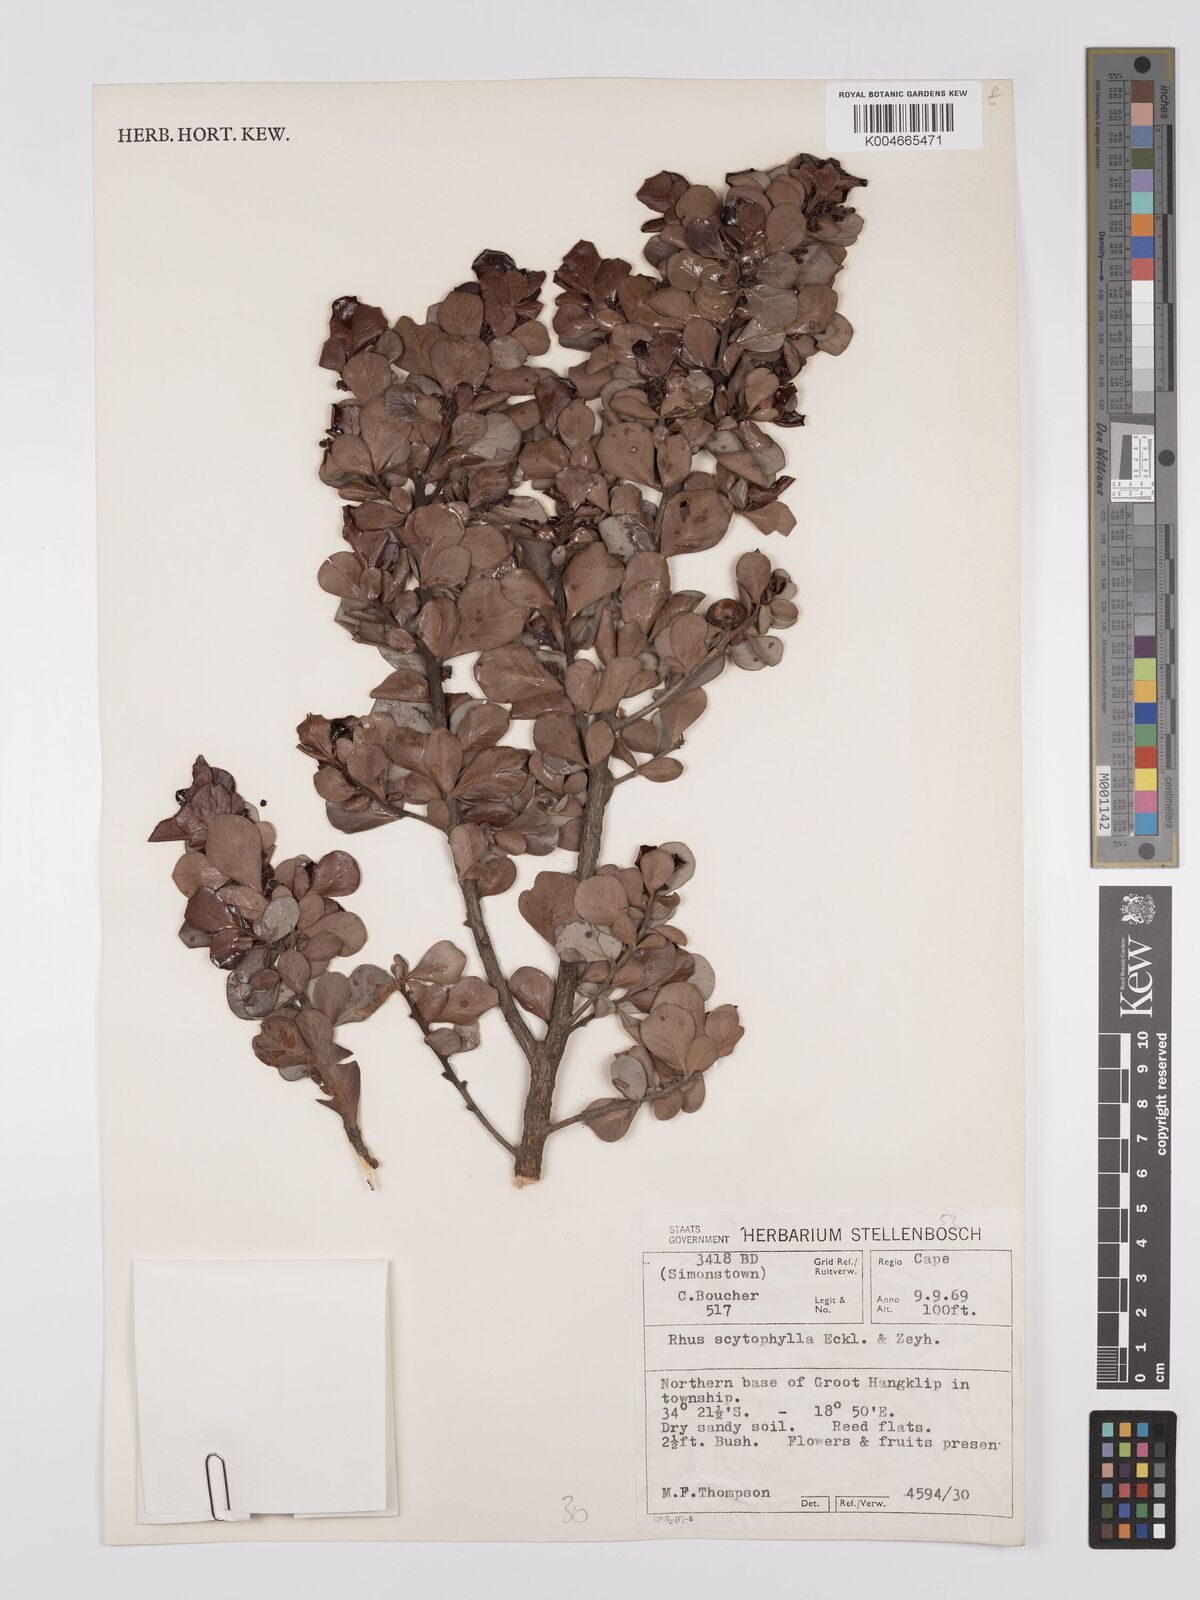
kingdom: Plantae
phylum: Tracheophyta
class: Magnoliopsida
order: Sapindales
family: Anacardiaceae
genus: Searsia
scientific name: Searsia scytophylla
